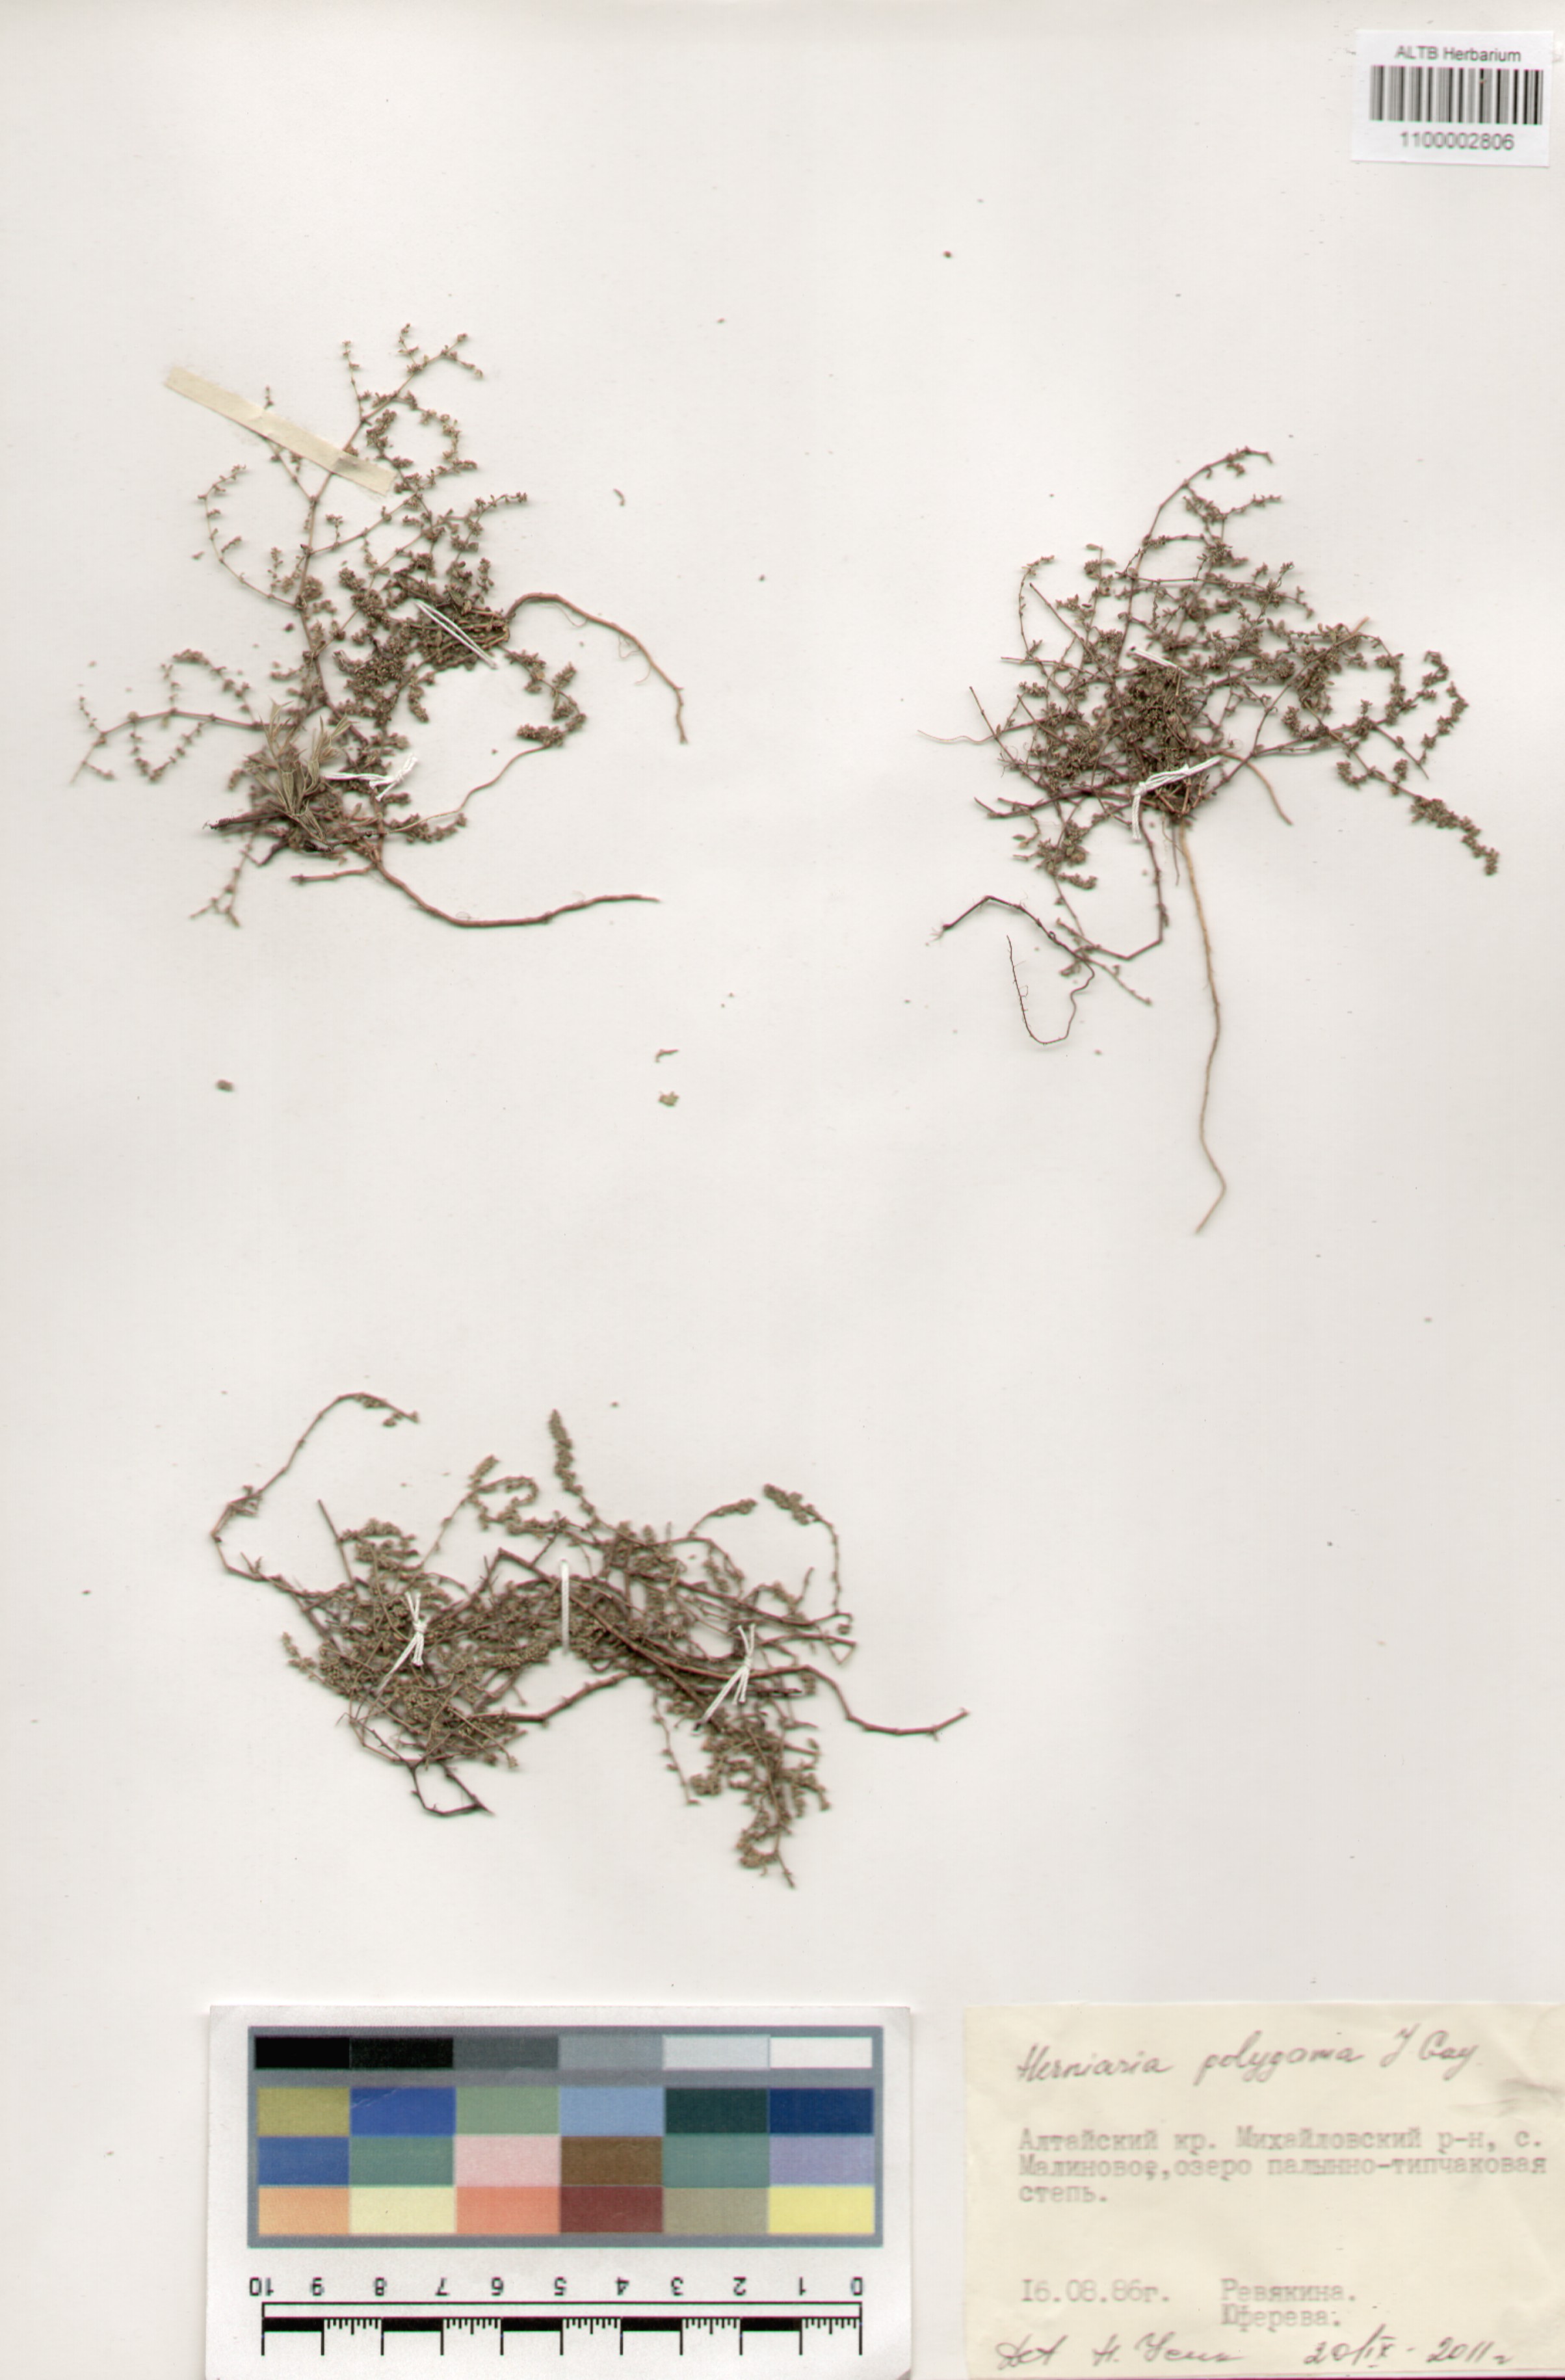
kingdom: Plantae
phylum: Tracheophyta
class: Magnoliopsida
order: Caryophyllales
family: Caryophyllaceae
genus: Herniaria
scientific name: Herniaria polygama
